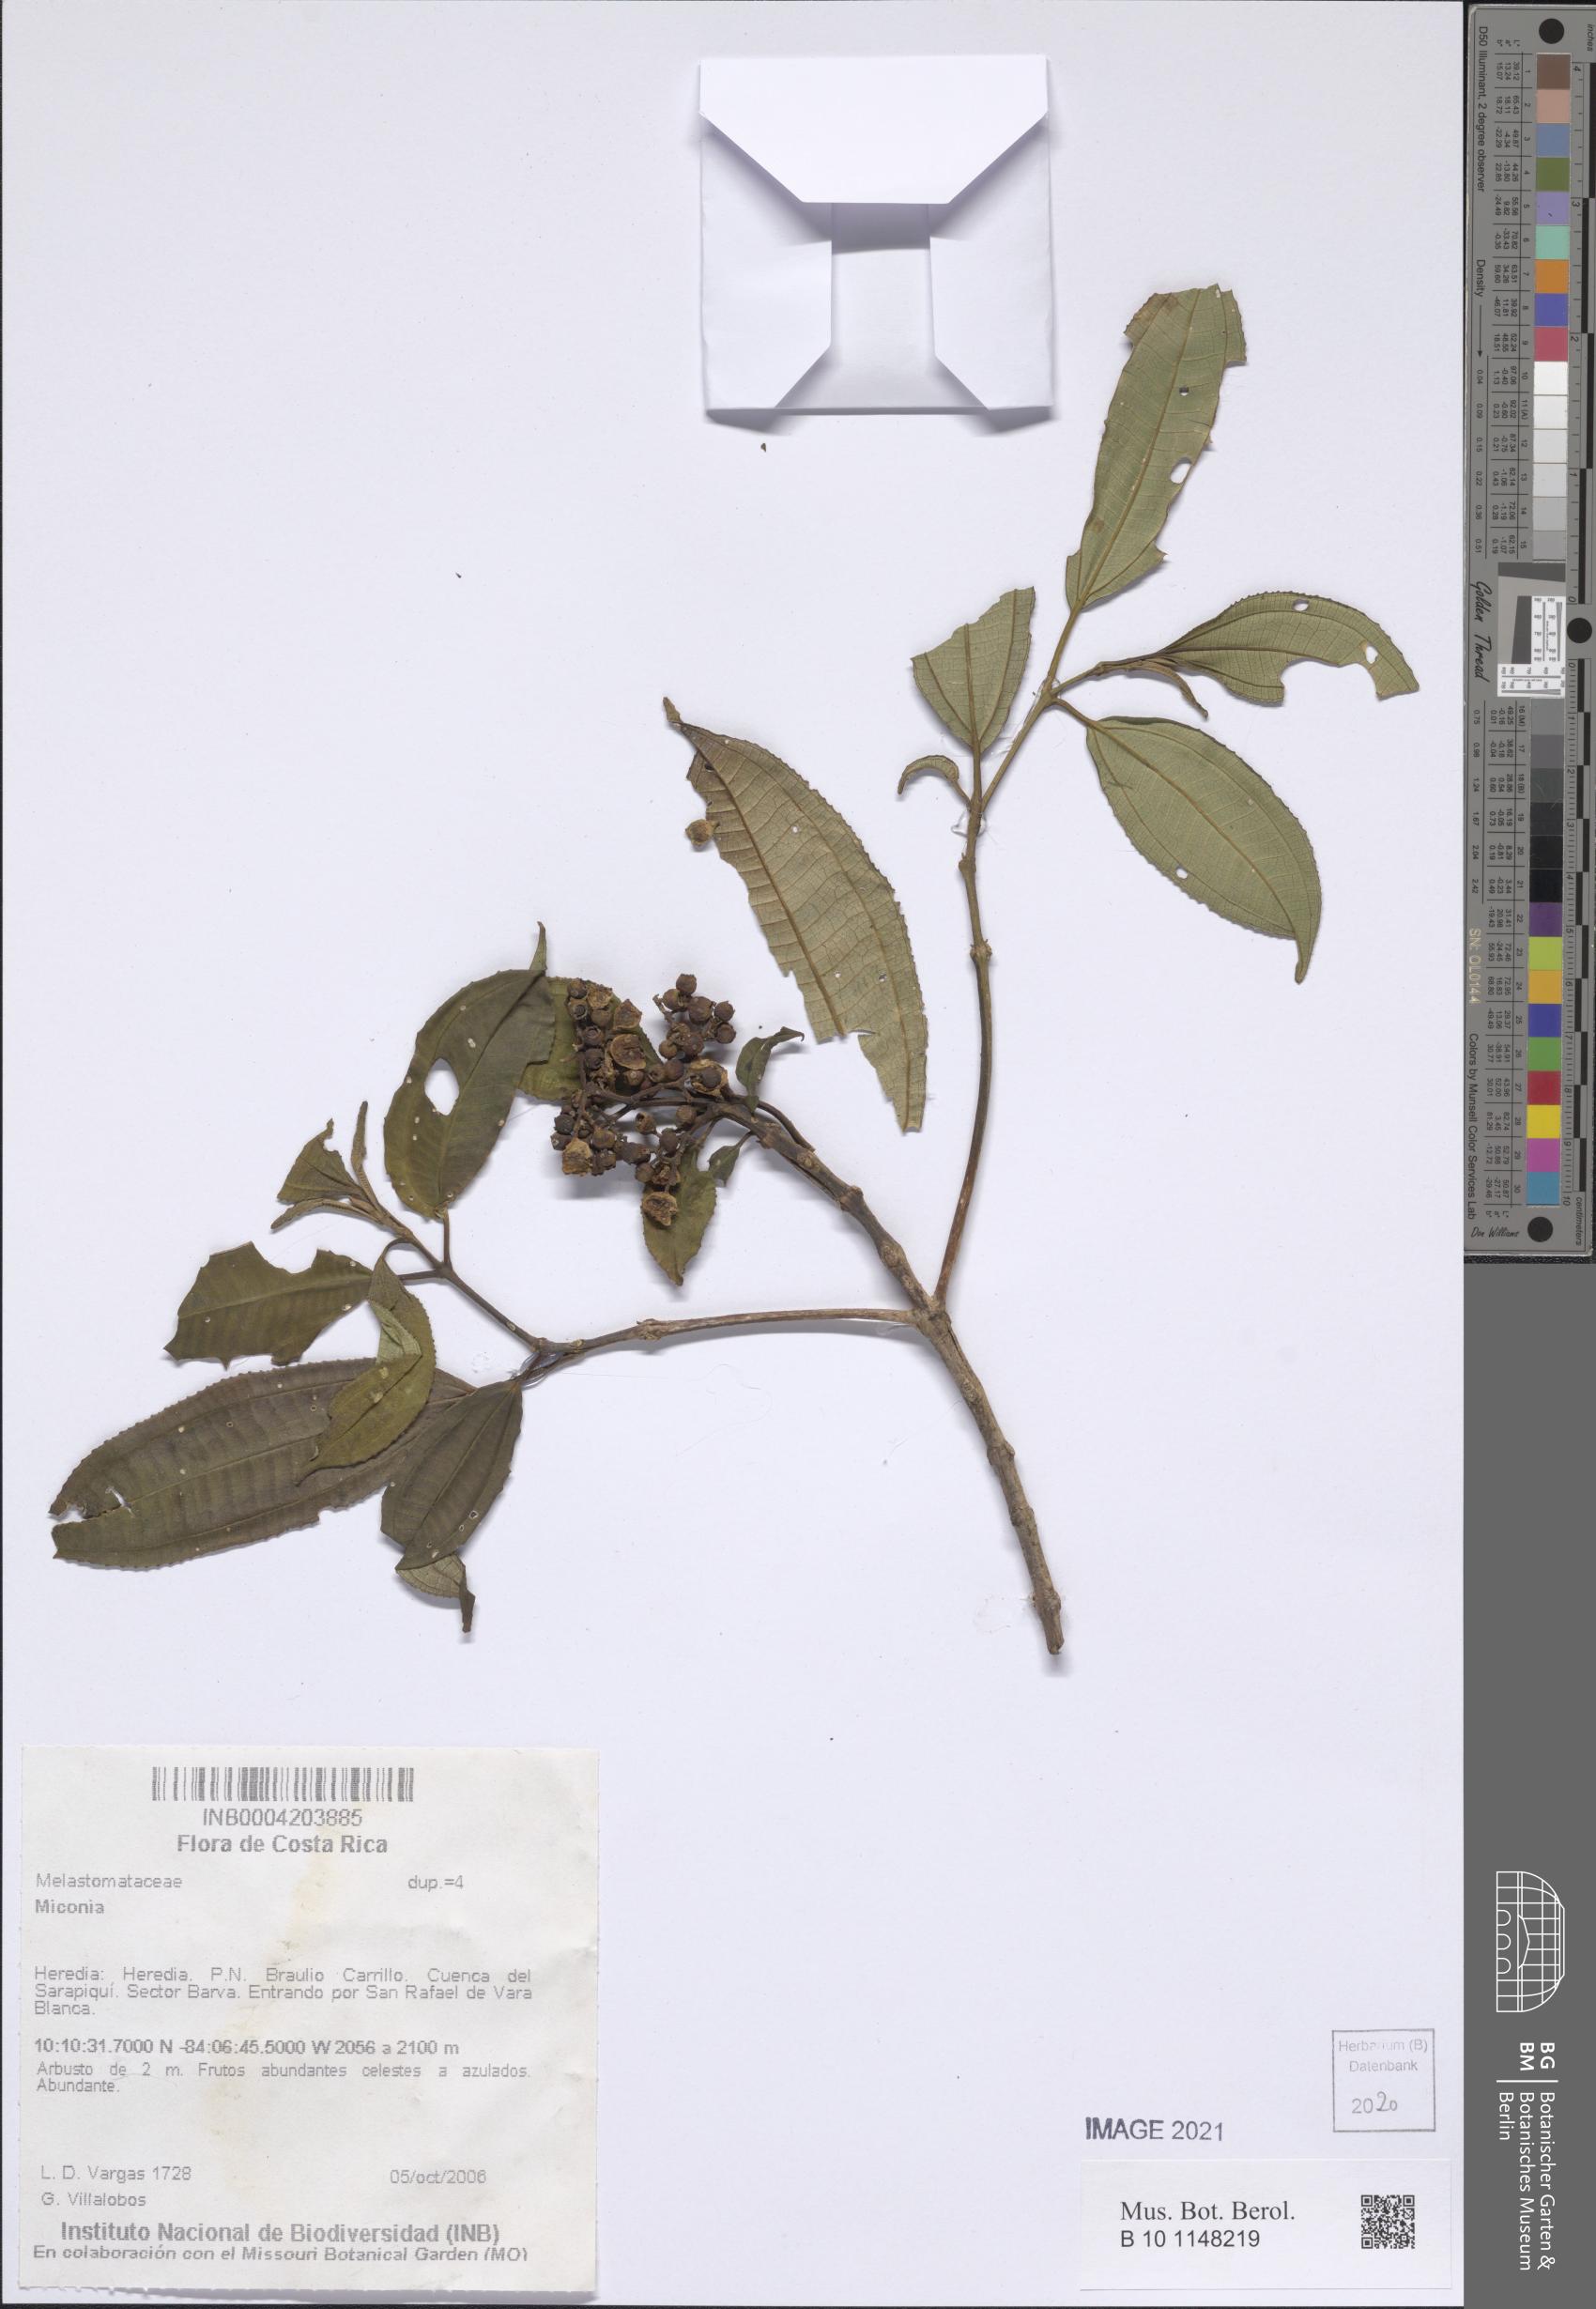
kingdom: Plantae
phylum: Tracheophyta
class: Magnoliopsida
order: Myrtales
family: Melastomataceae
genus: Miconia
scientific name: Miconia
